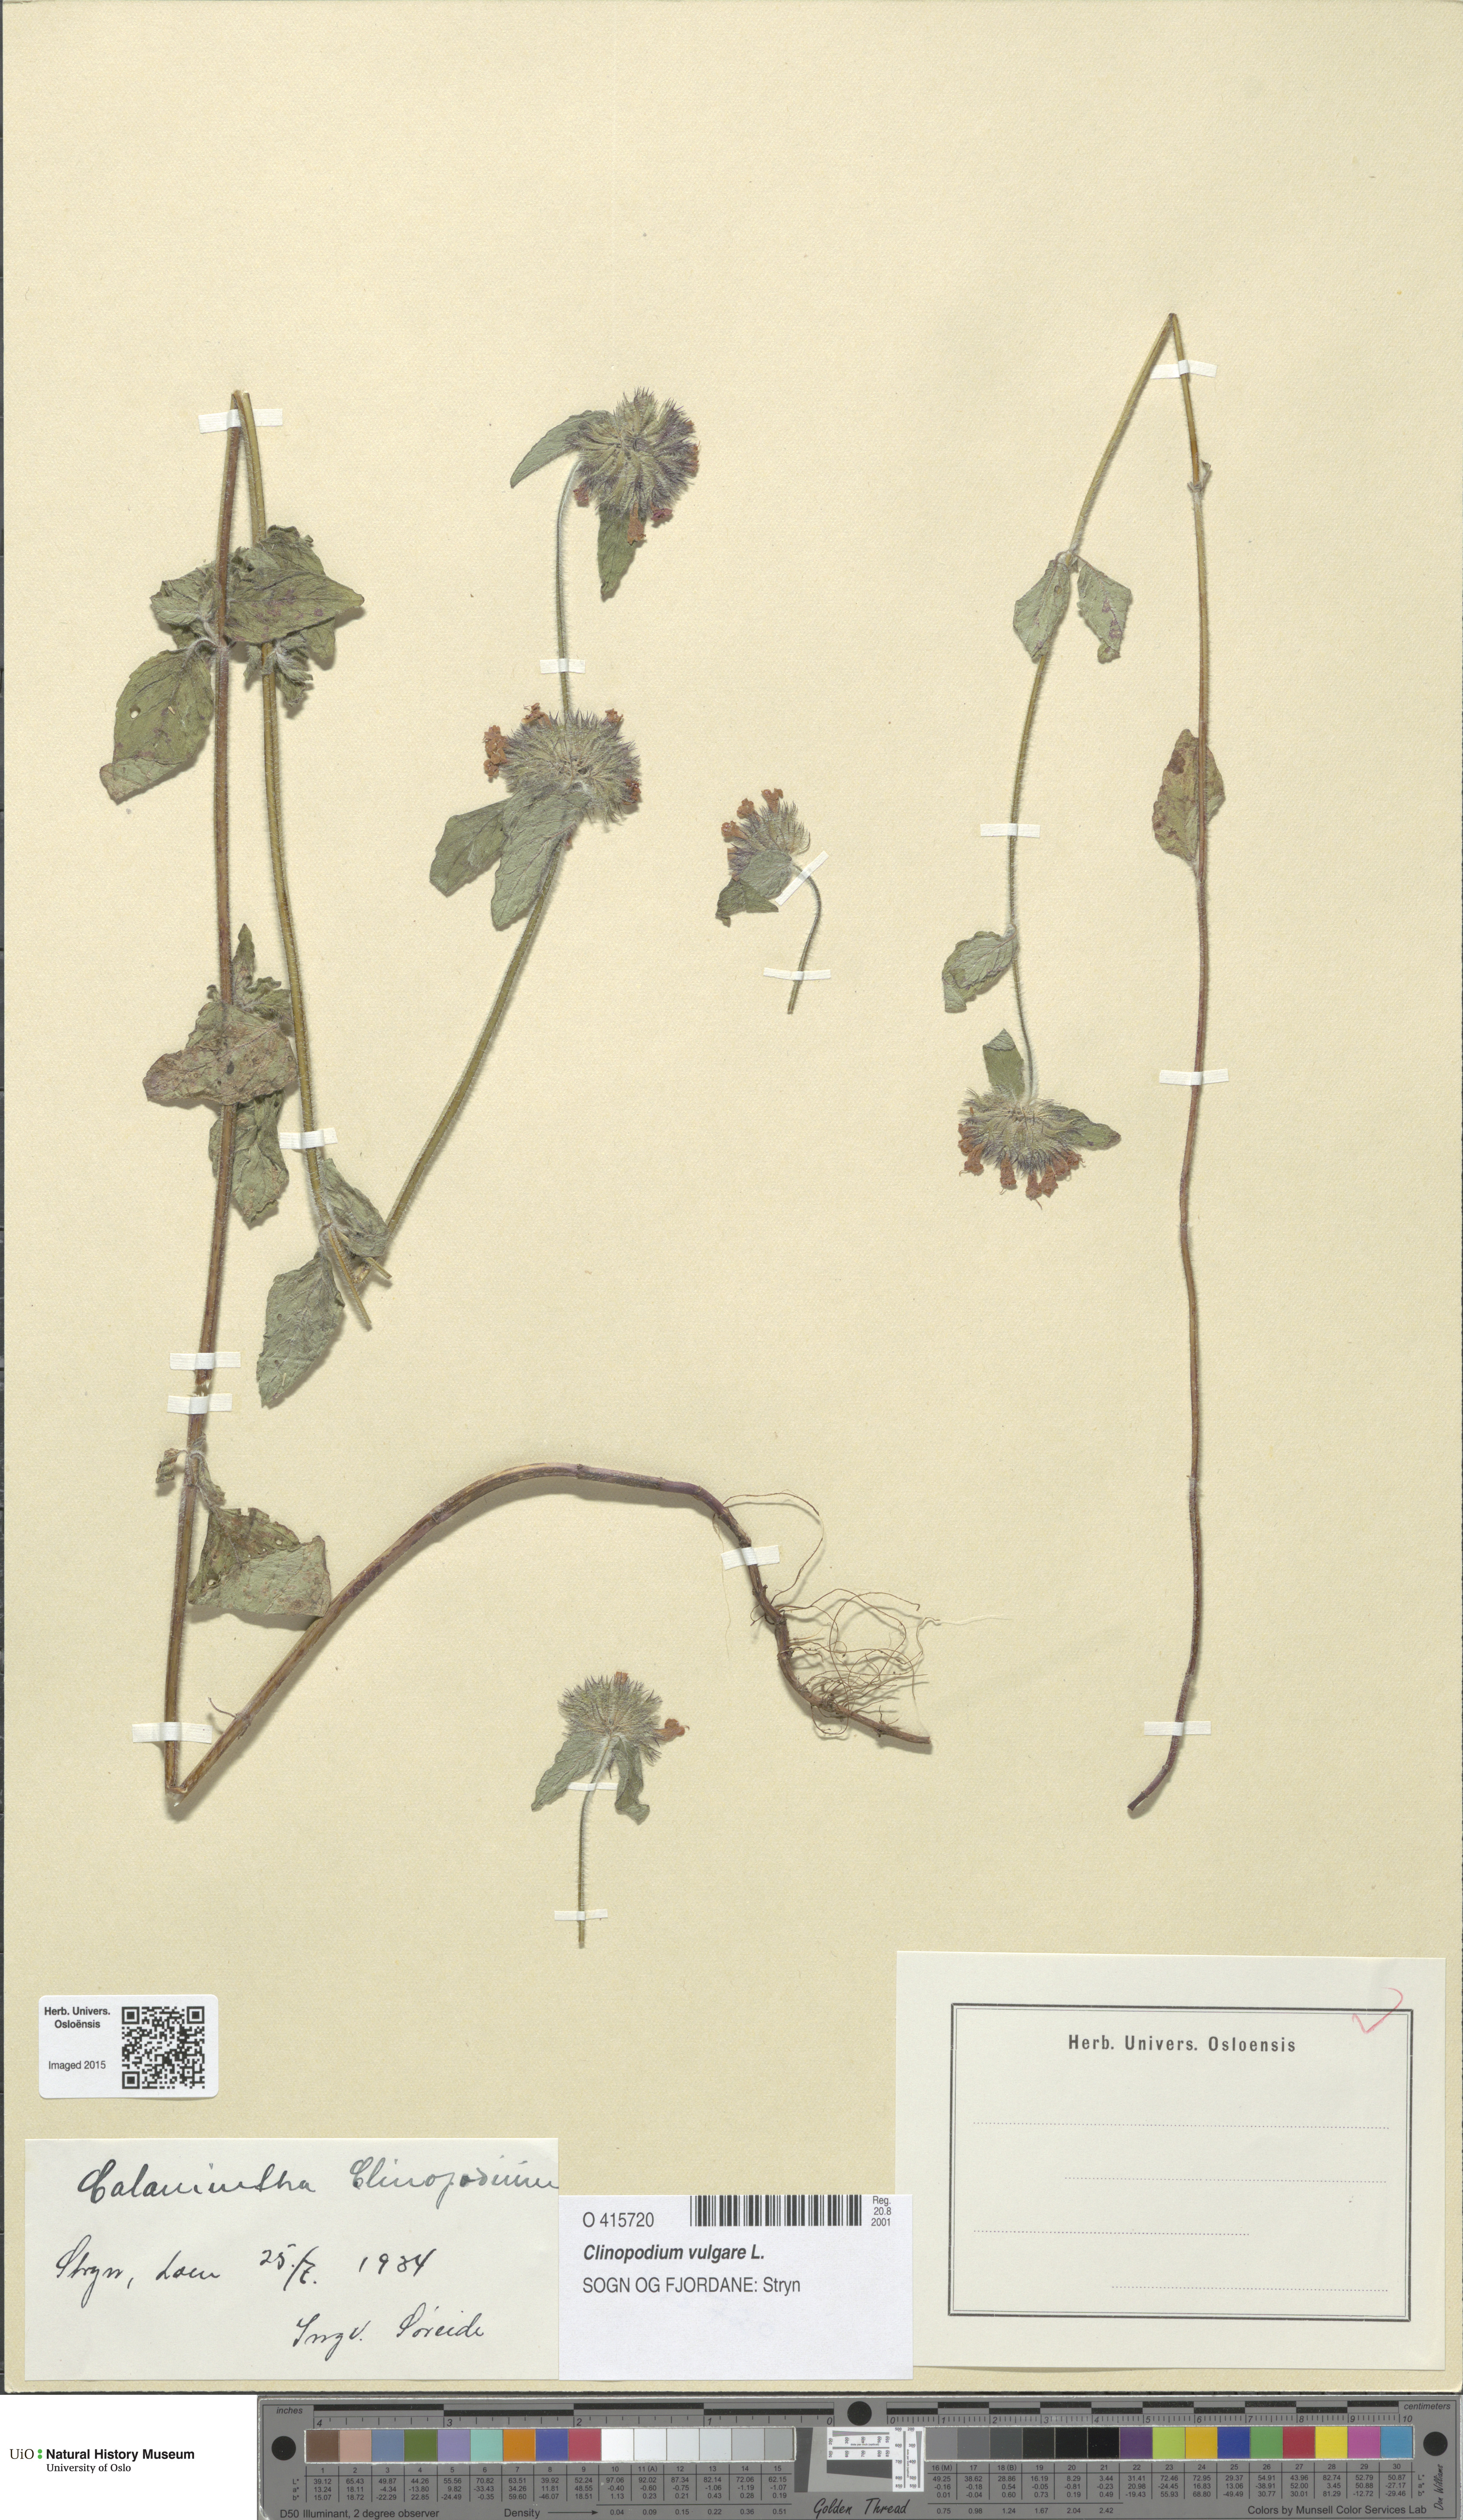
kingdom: Plantae
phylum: Tracheophyta
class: Magnoliopsida
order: Lamiales
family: Lamiaceae
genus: Clinopodium
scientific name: Clinopodium vulgare
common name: Wild basil
